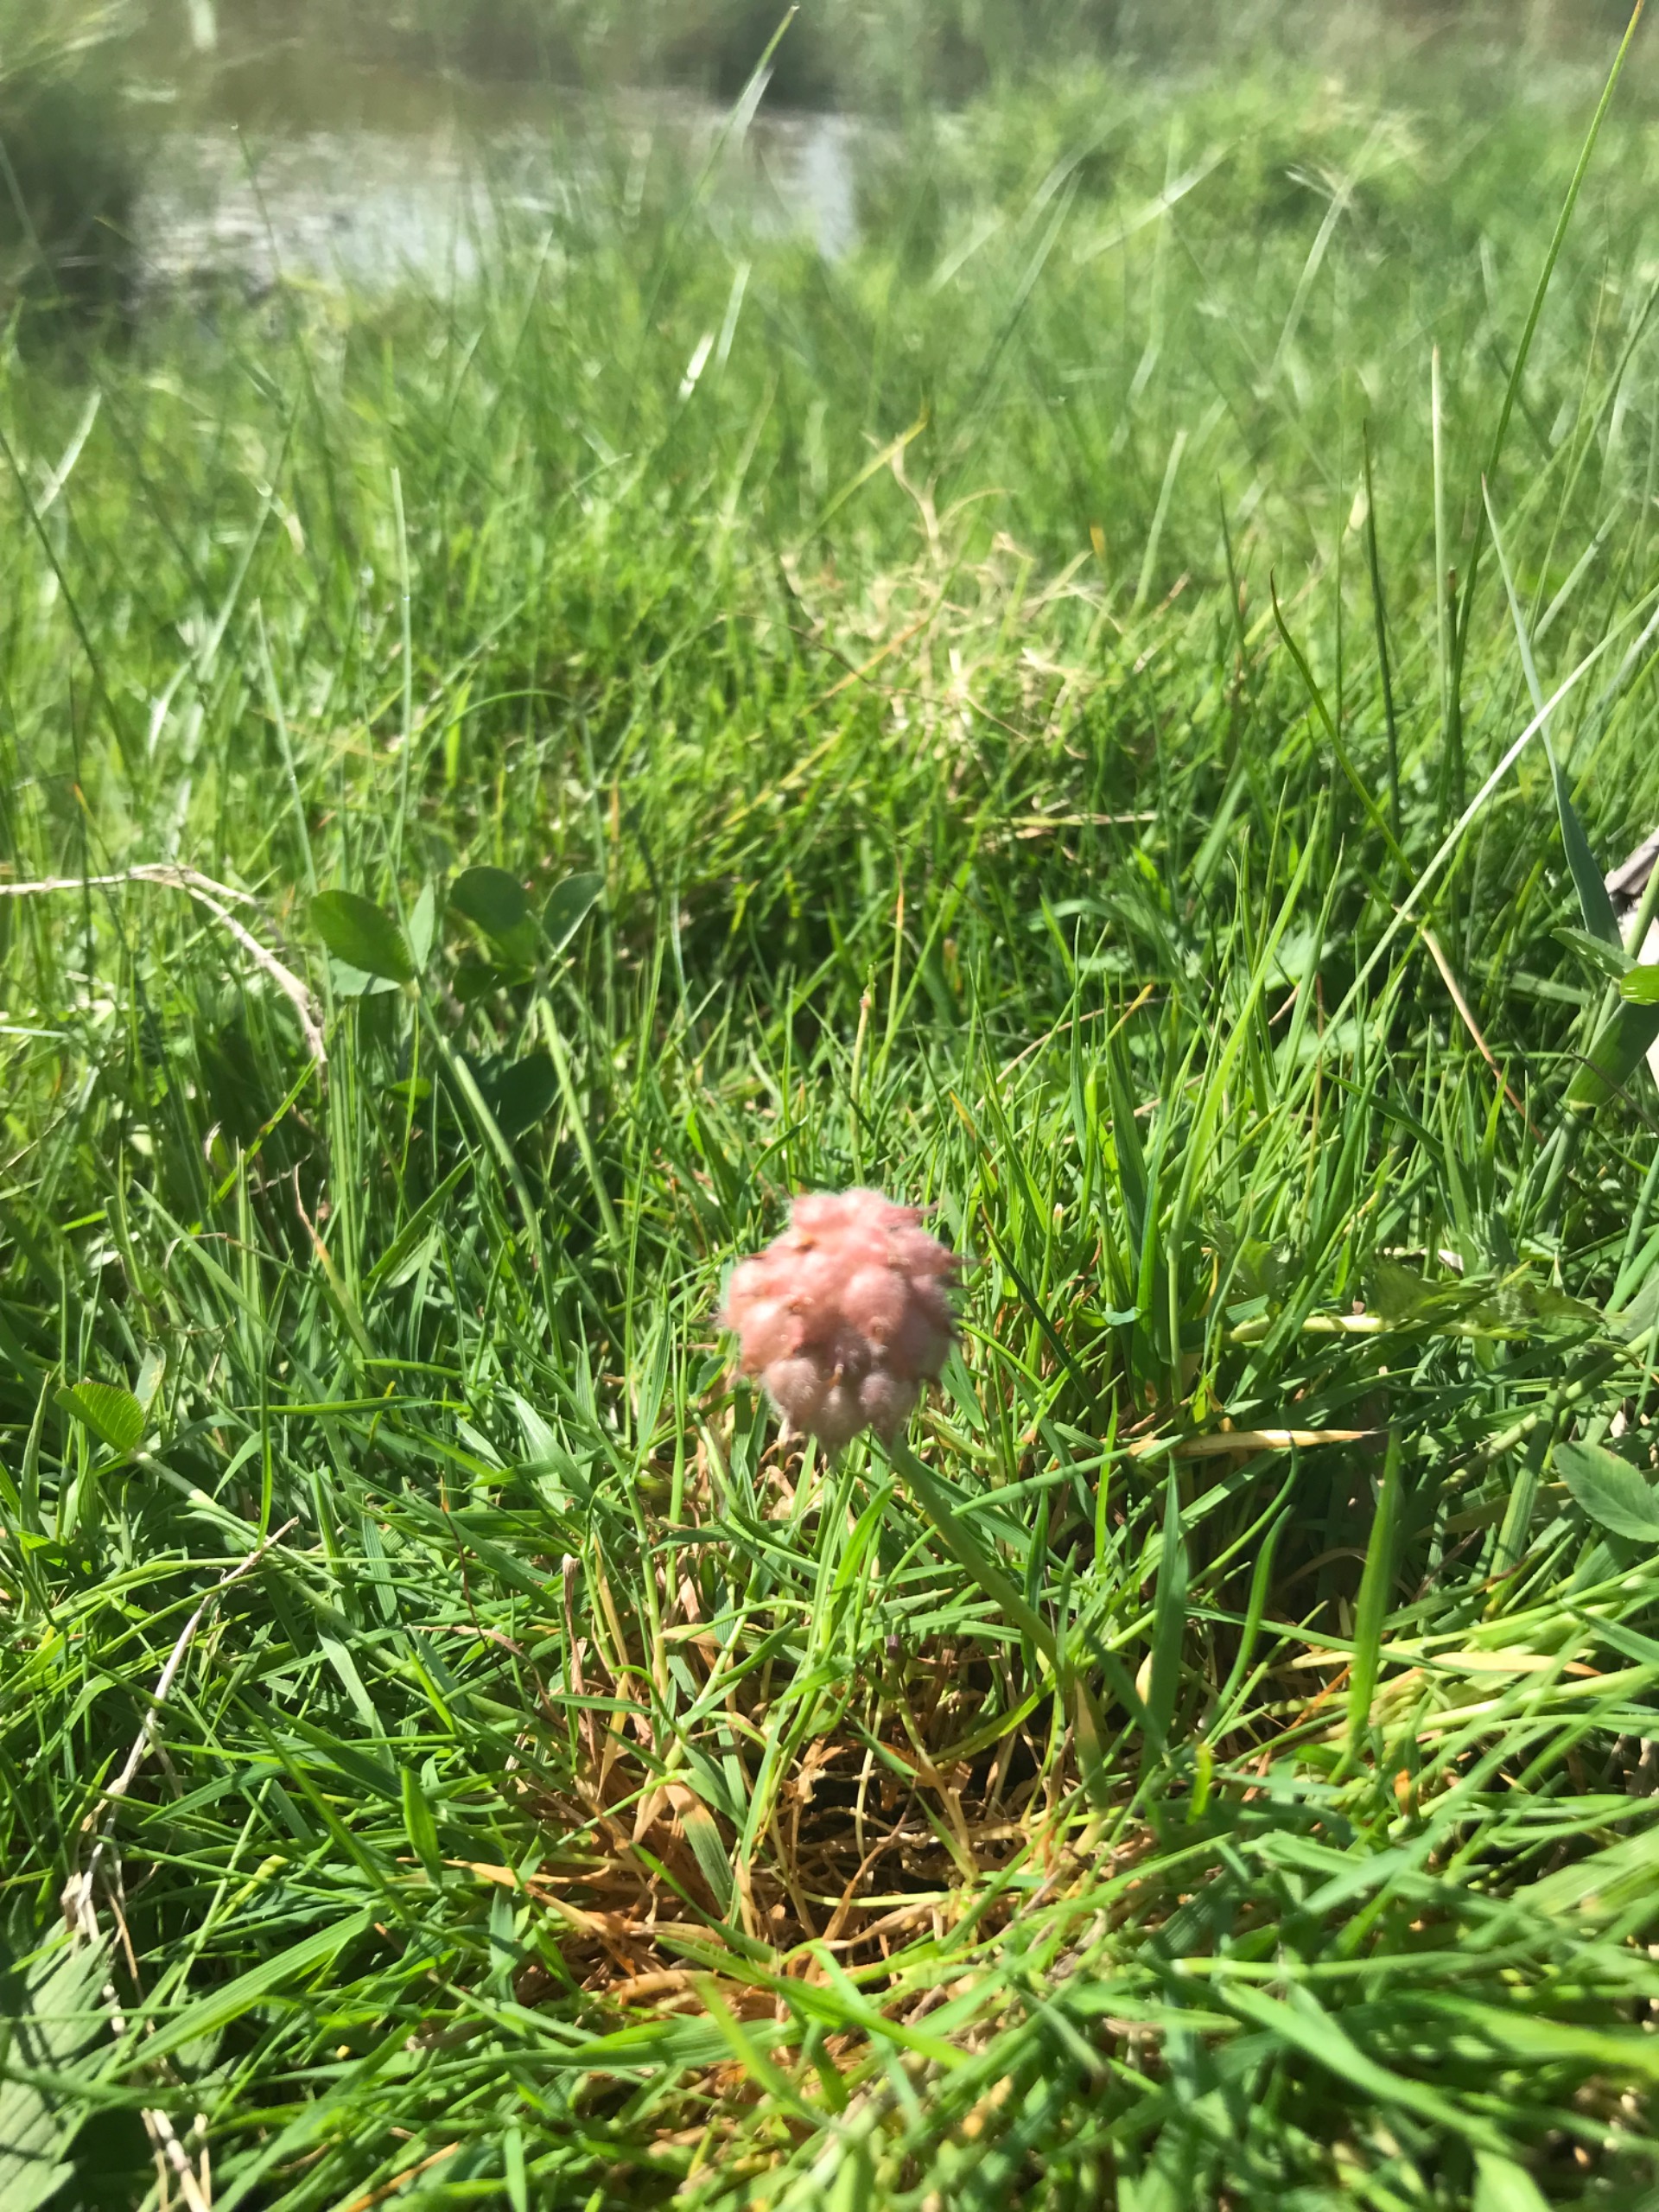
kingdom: Plantae
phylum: Tracheophyta
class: Magnoliopsida
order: Fabales
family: Fabaceae
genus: Trifolium
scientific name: Trifolium fragiferum
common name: Jordbær-kløver
